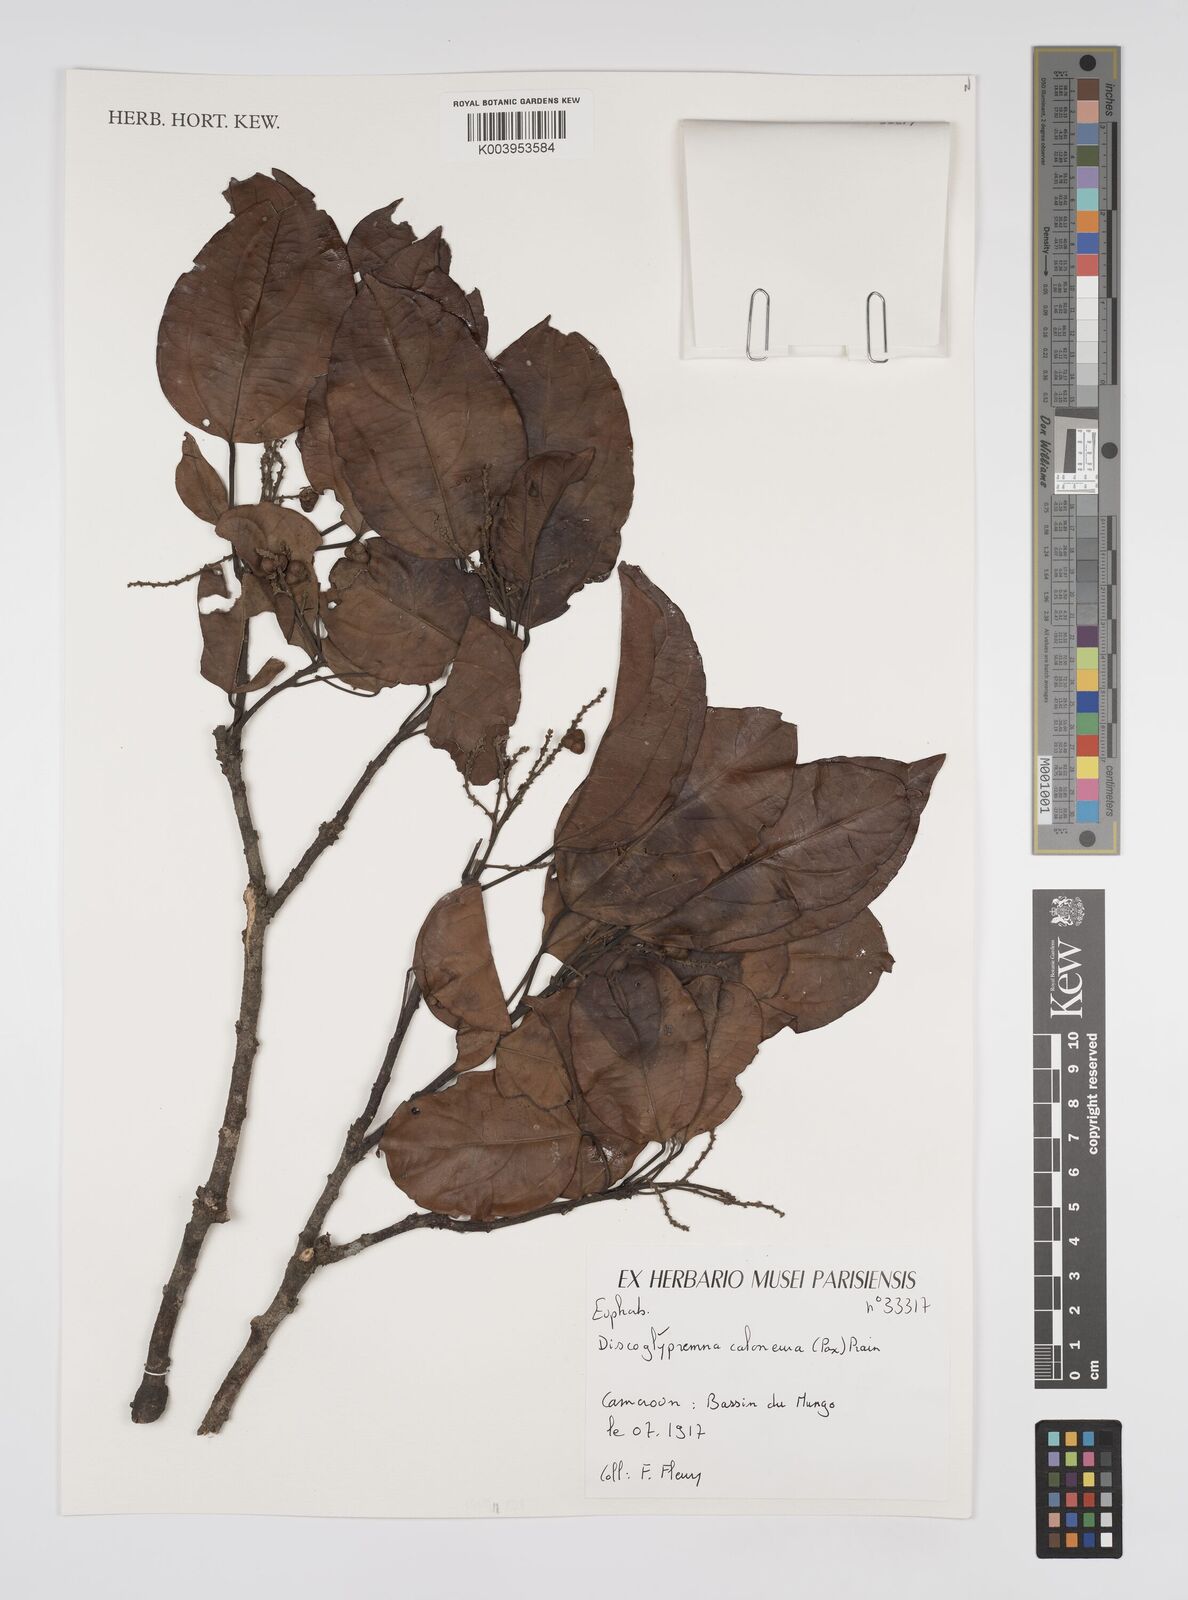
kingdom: Plantae
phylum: Tracheophyta
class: Magnoliopsida
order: Malpighiales
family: Euphorbiaceae
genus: Discoglypremna
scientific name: Discoglypremna caloneura
